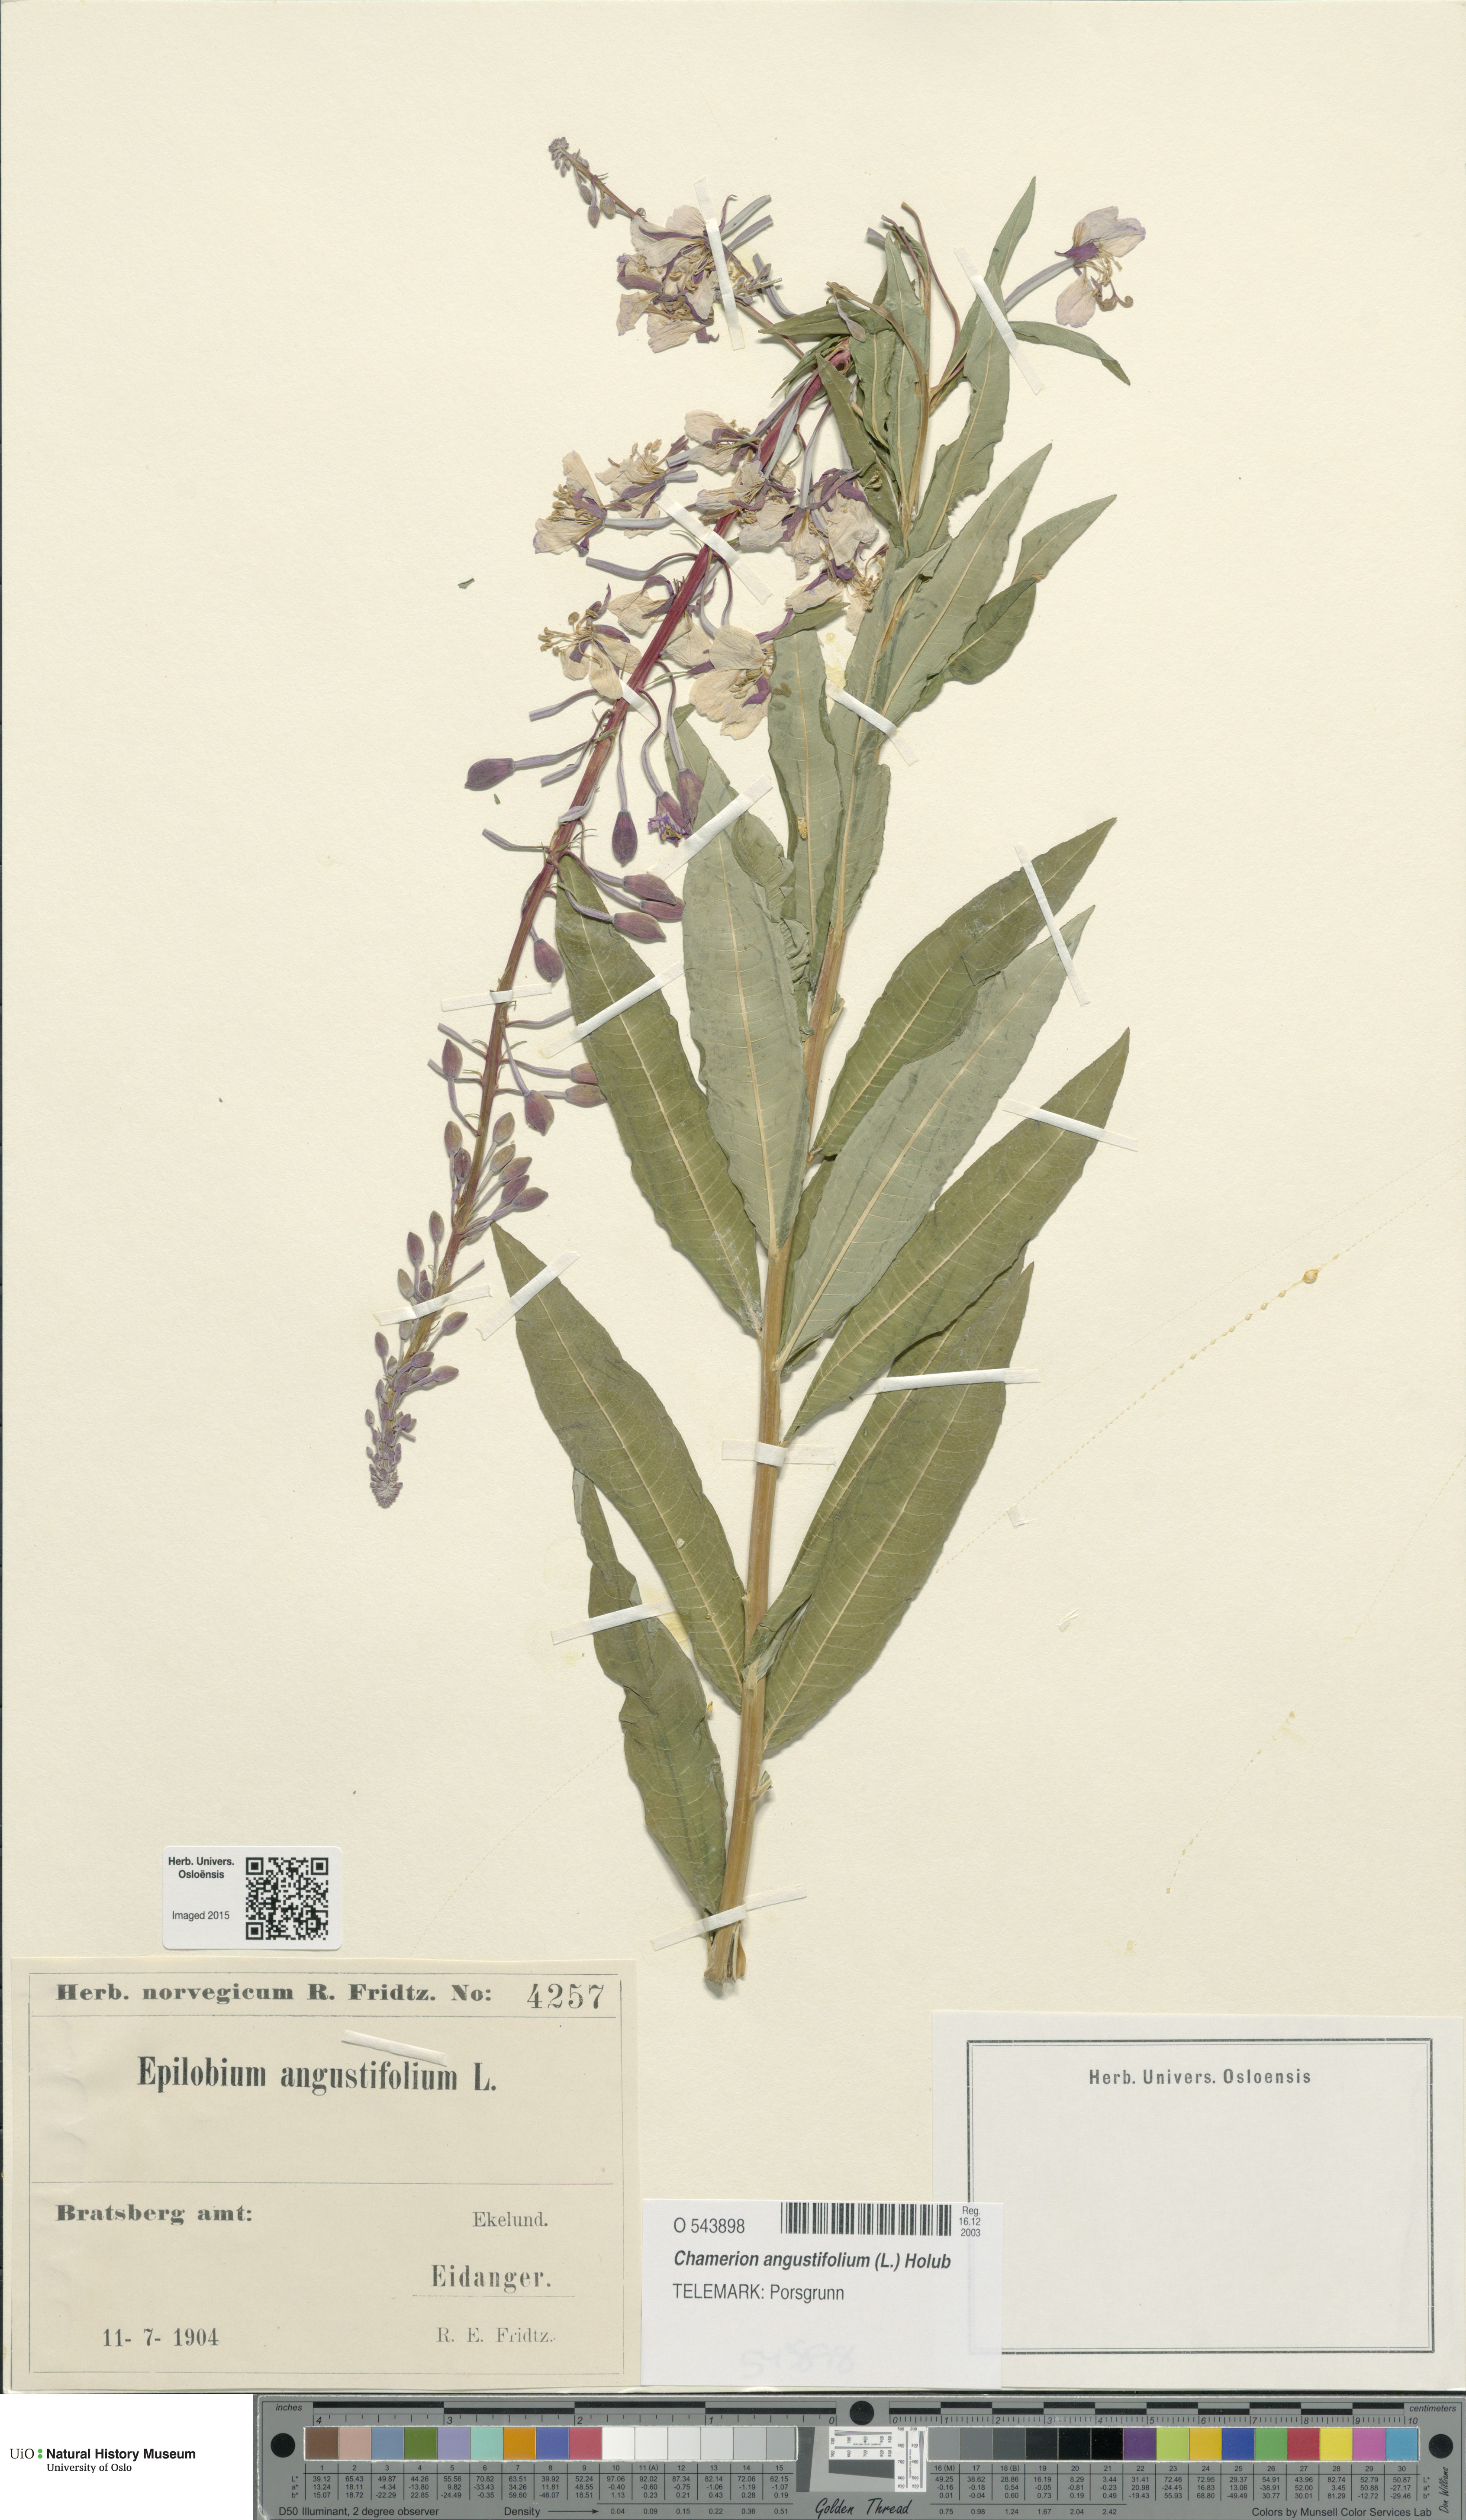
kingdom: Plantae
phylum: Tracheophyta
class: Magnoliopsida
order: Myrtales
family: Onagraceae
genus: Chamaenerion
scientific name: Chamaenerion angustifolium
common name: Fireweed
